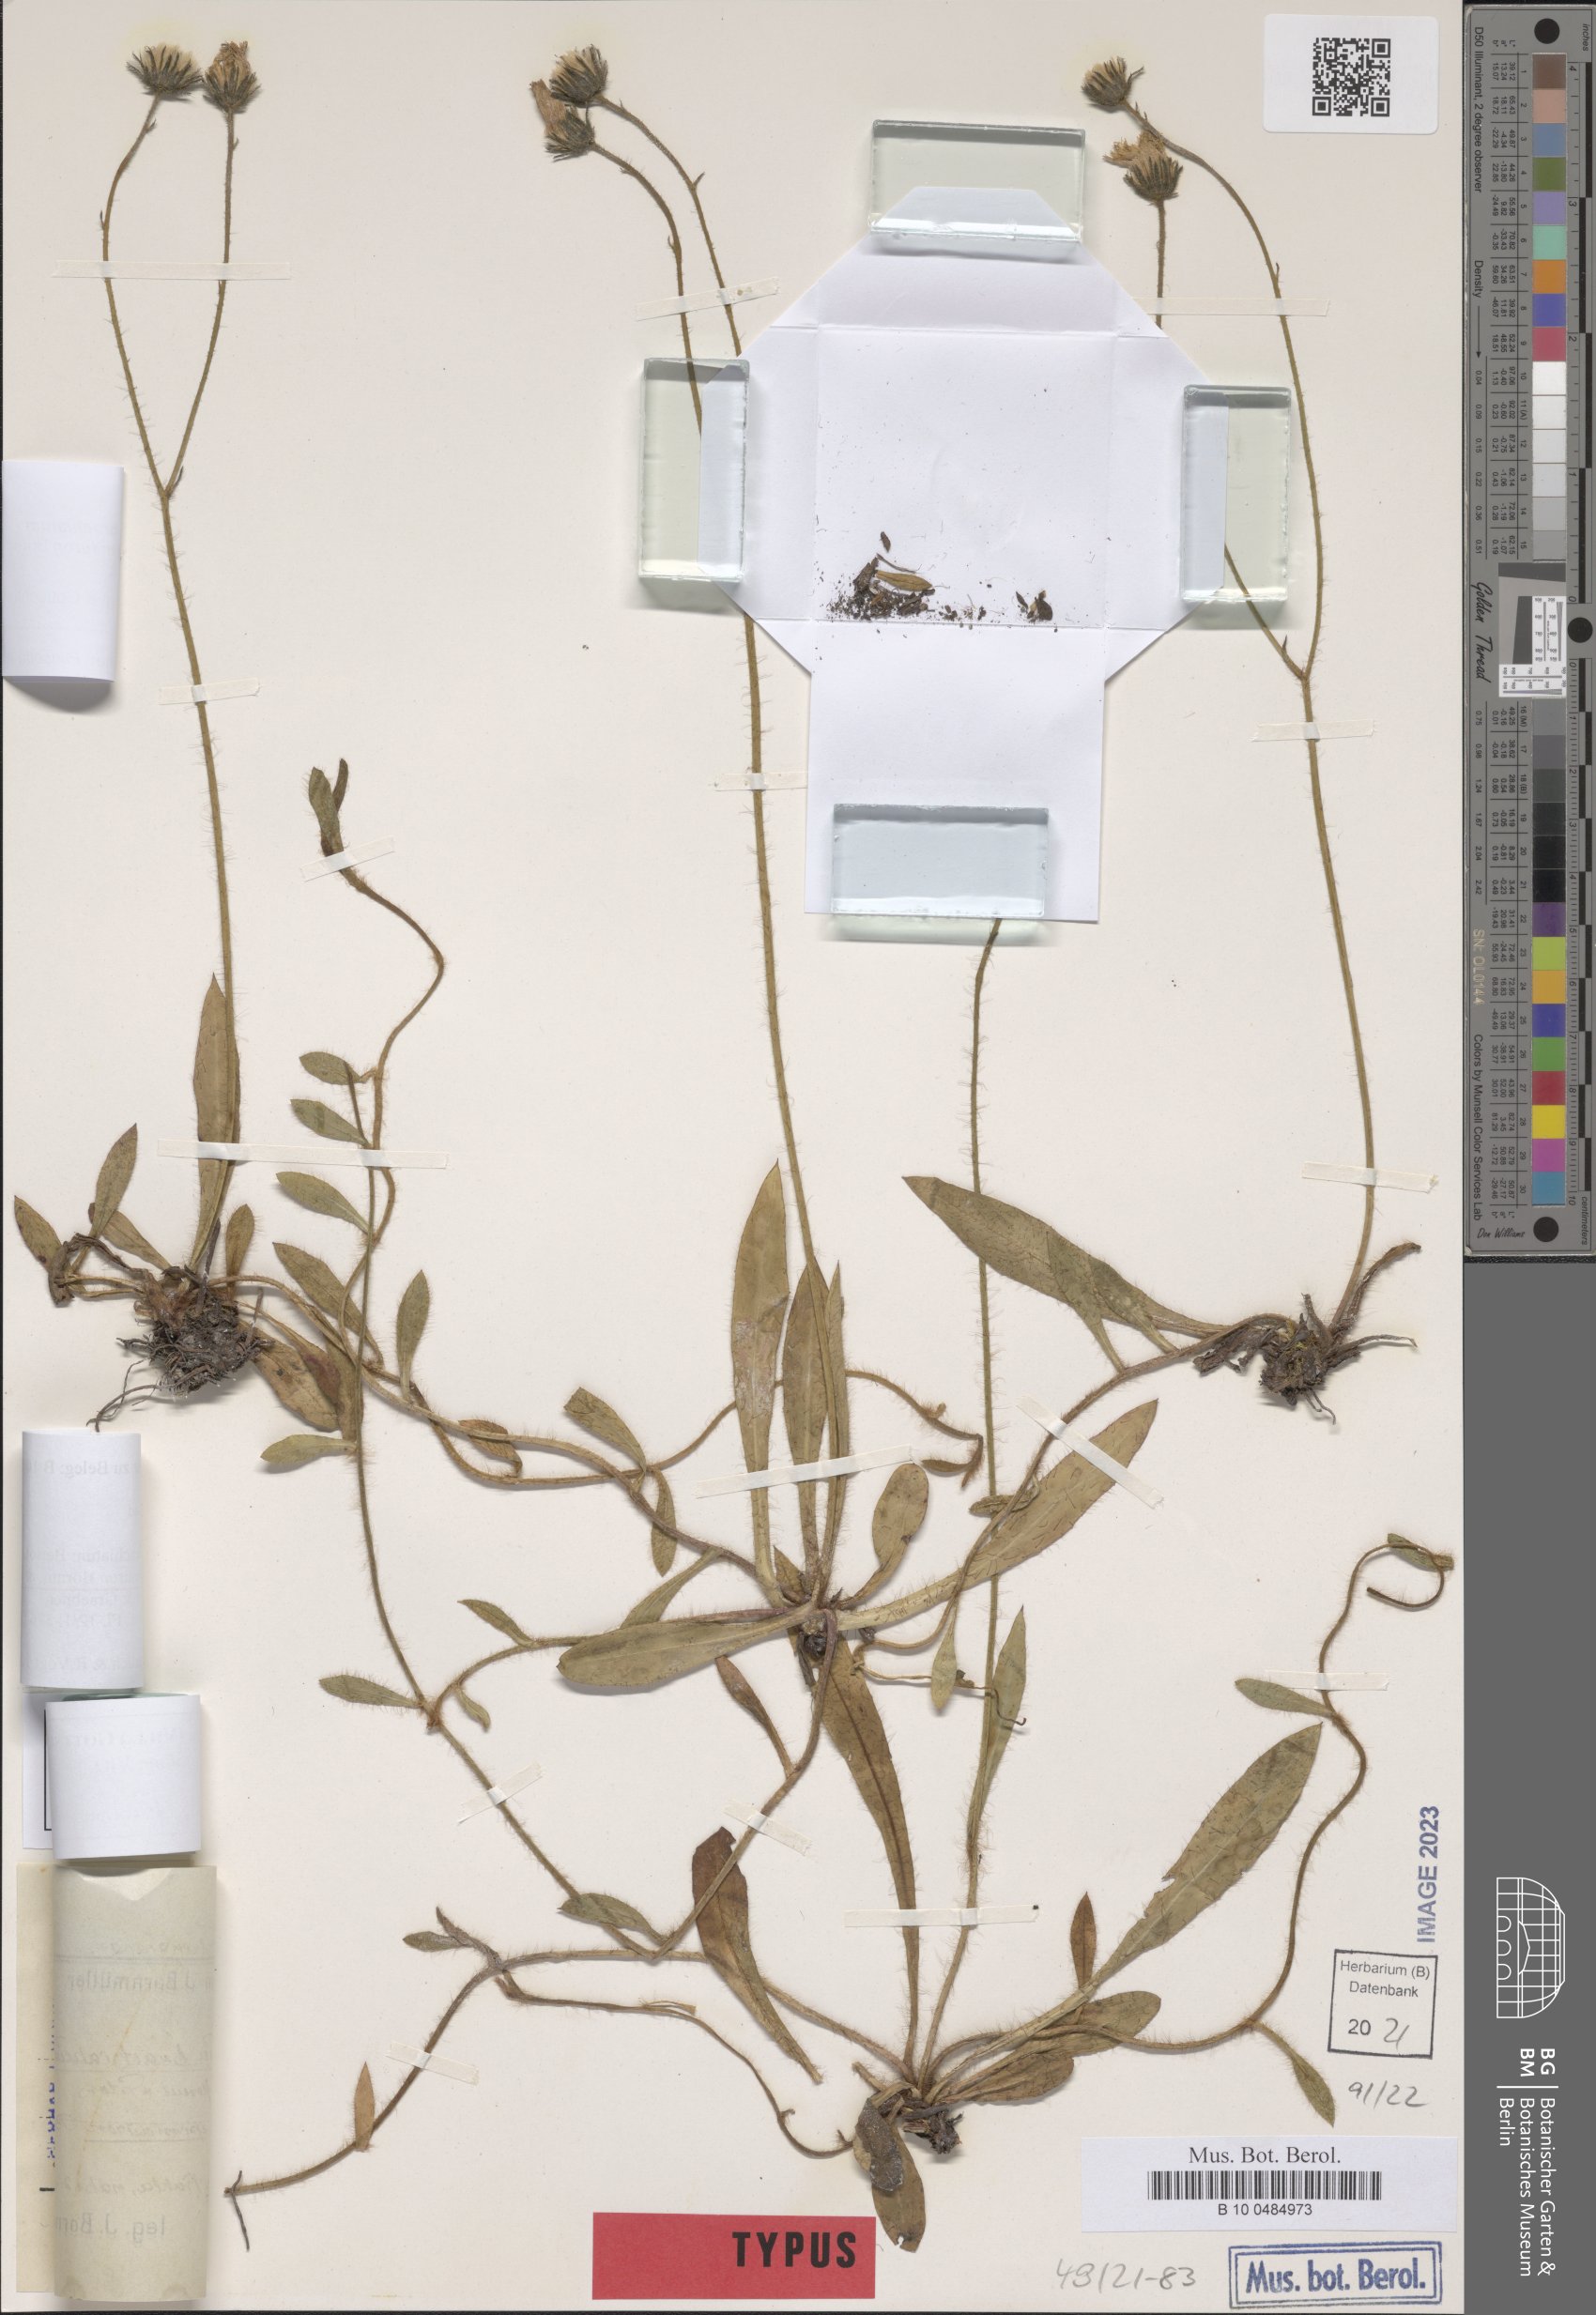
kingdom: Plantae
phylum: Tracheophyta
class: Magnoliopsida
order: Asterales
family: Asteraceae
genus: Pilosella
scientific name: Pilosella acutifolia
